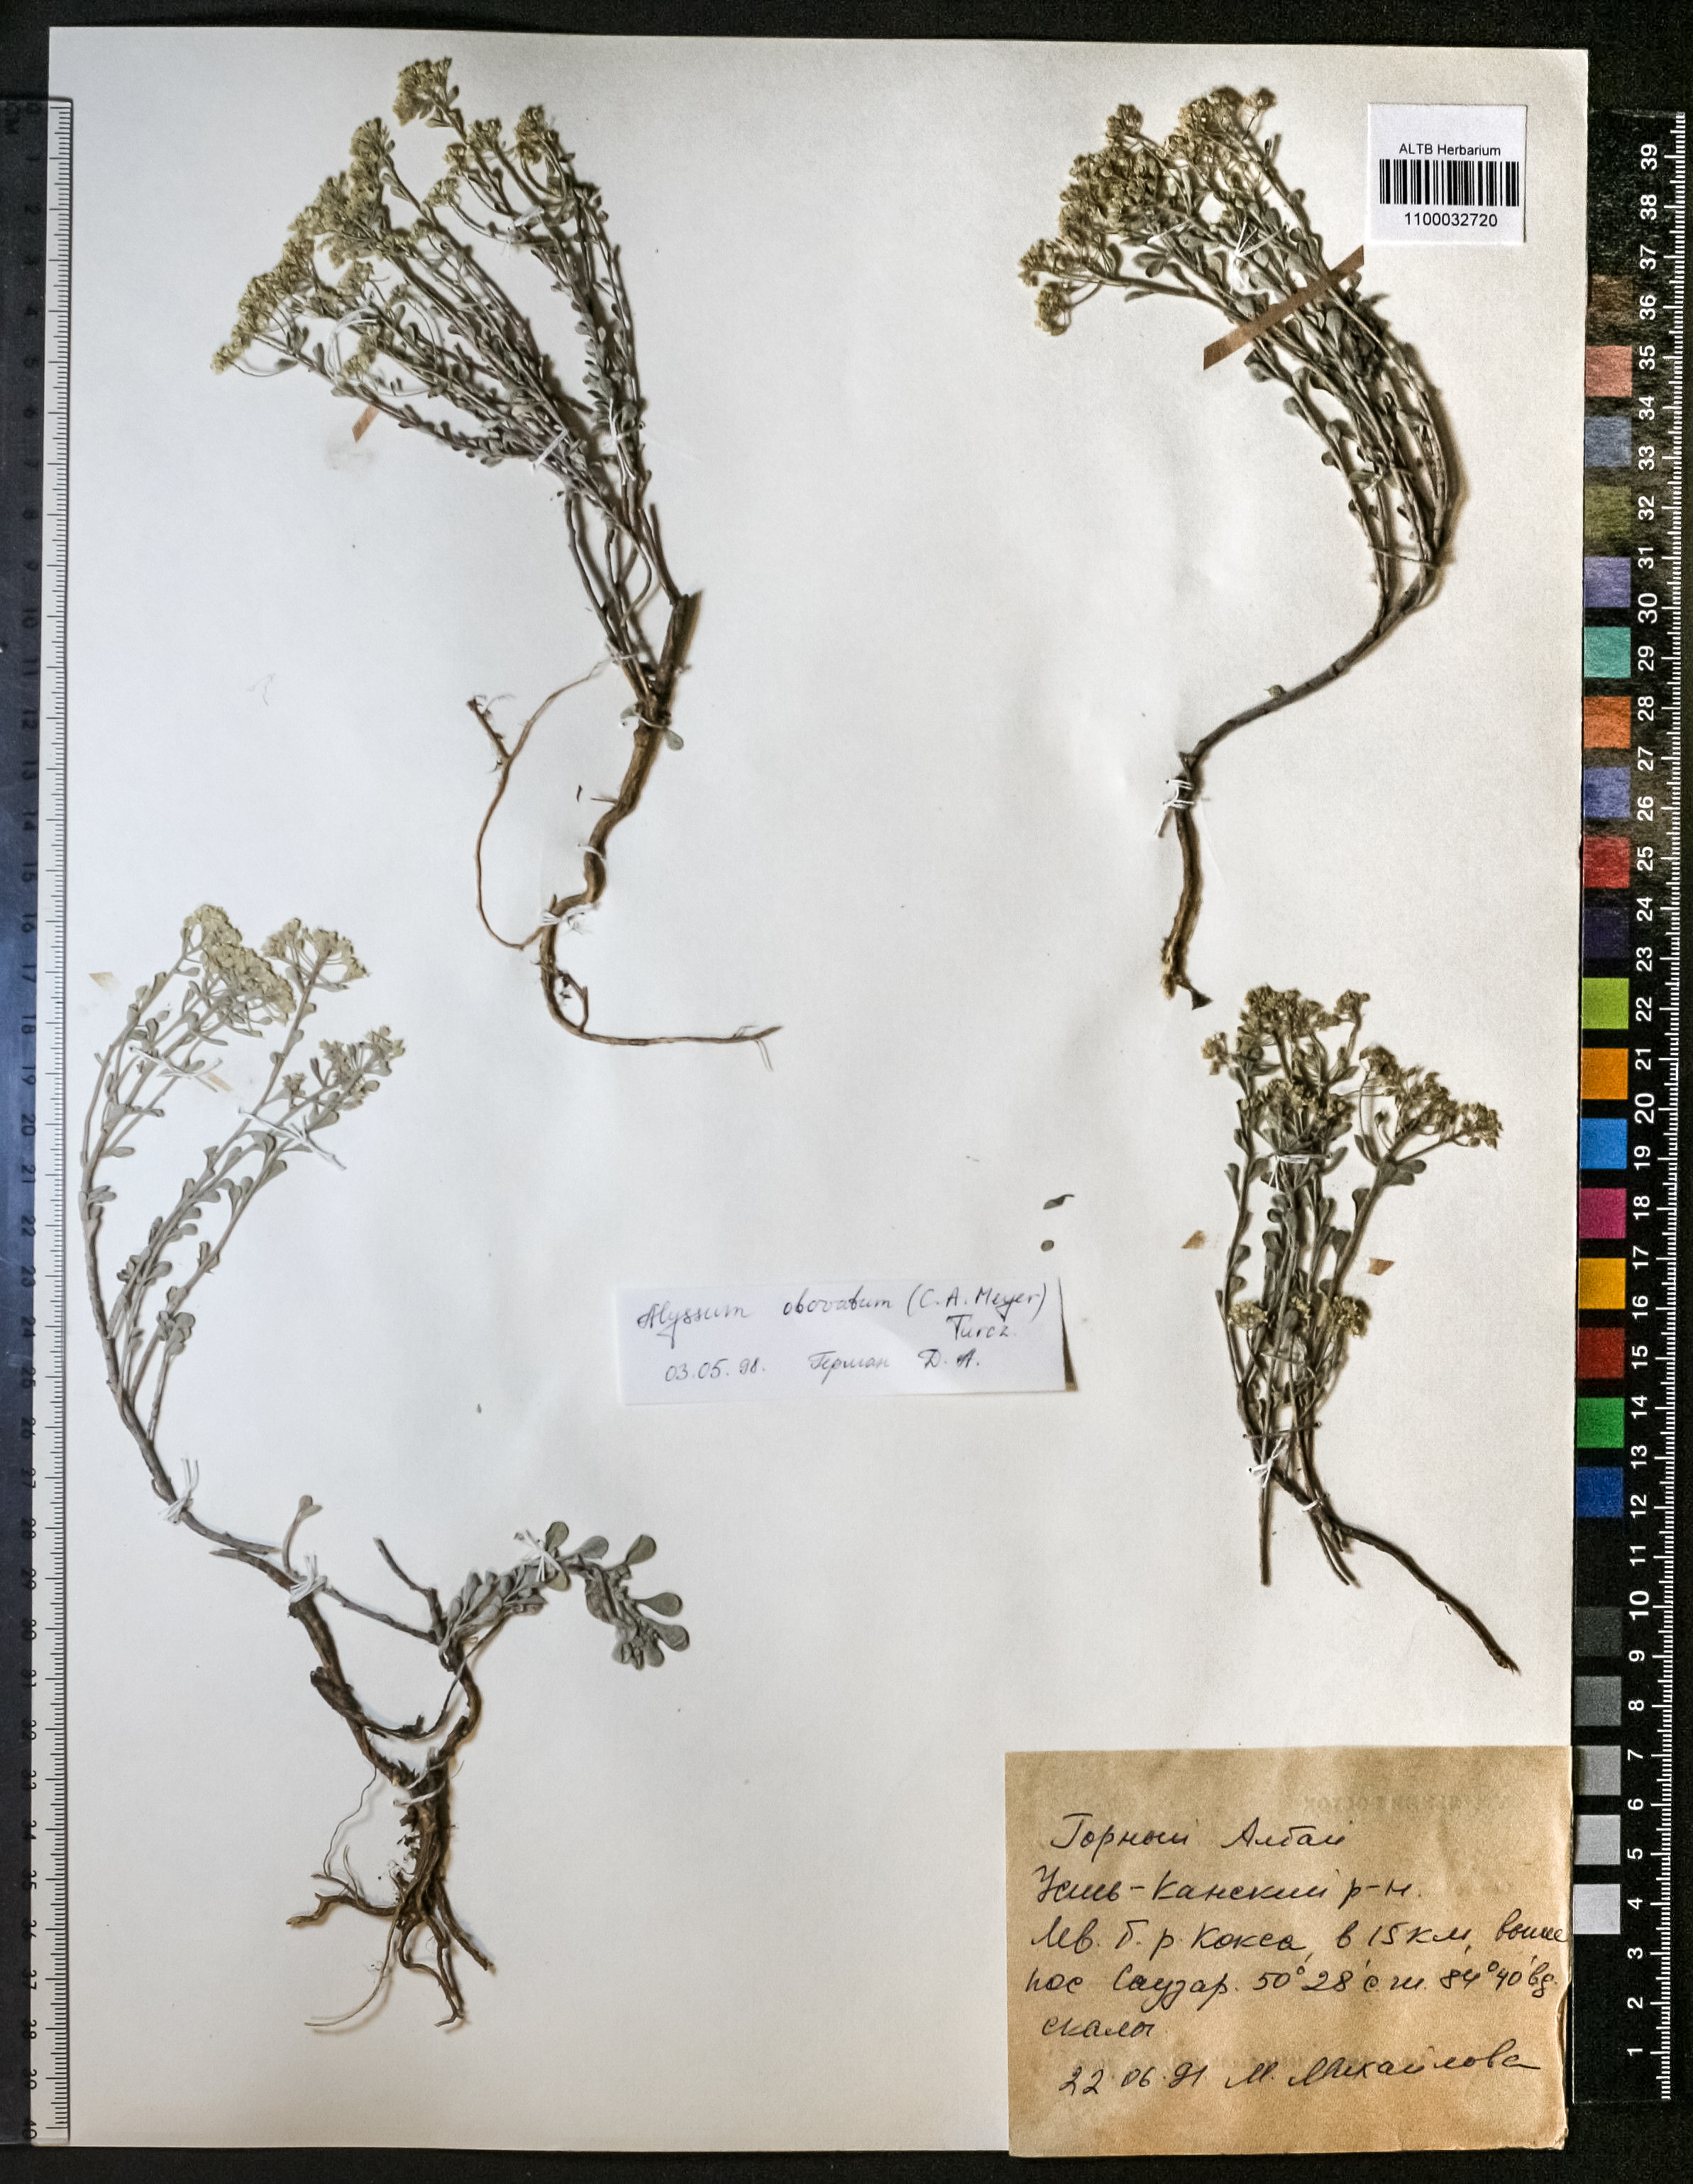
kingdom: Plantae
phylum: Tracheophyta
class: Magnoliopsida
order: Brassicales
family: Brassicaceae
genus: Odontarrhena
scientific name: Odontarrhena obovata
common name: American alyssum
